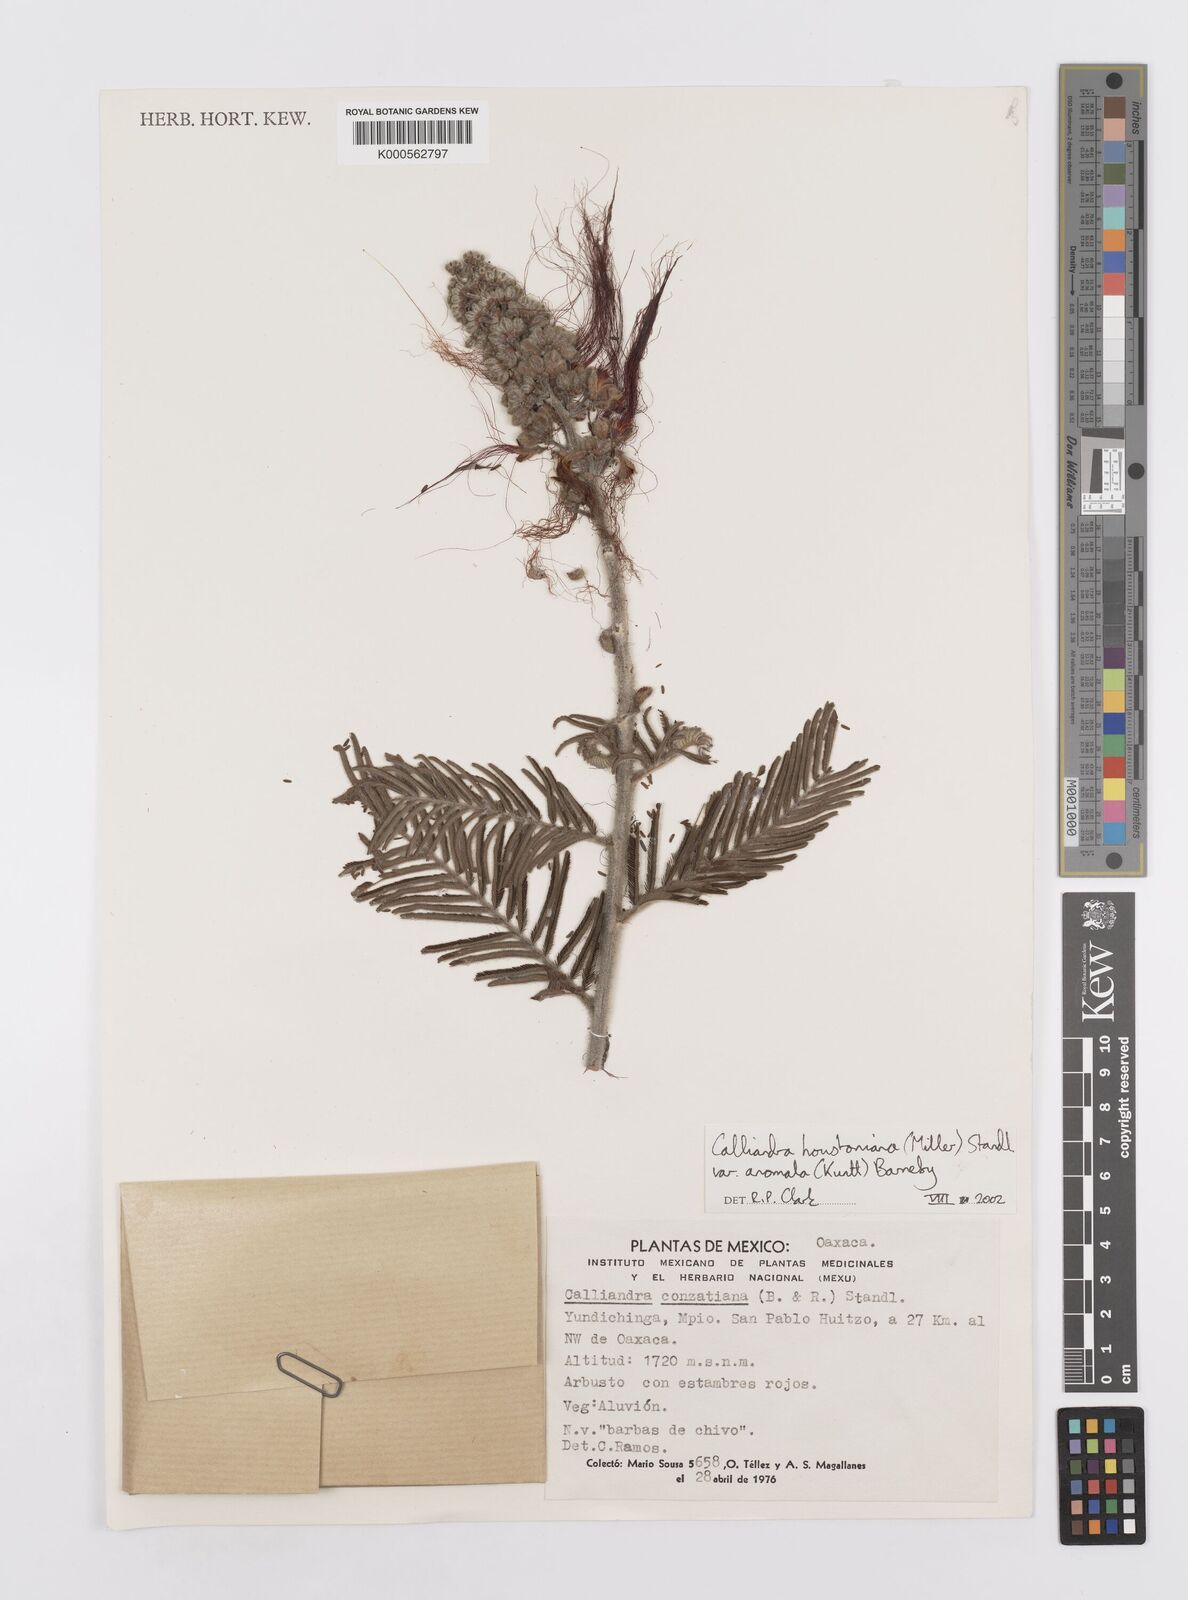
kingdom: Plantae
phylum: Tracheophyta
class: Magnoliopsida
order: Fabales
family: Fabaceae
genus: Calliandra
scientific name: Calliandra houstoniana
